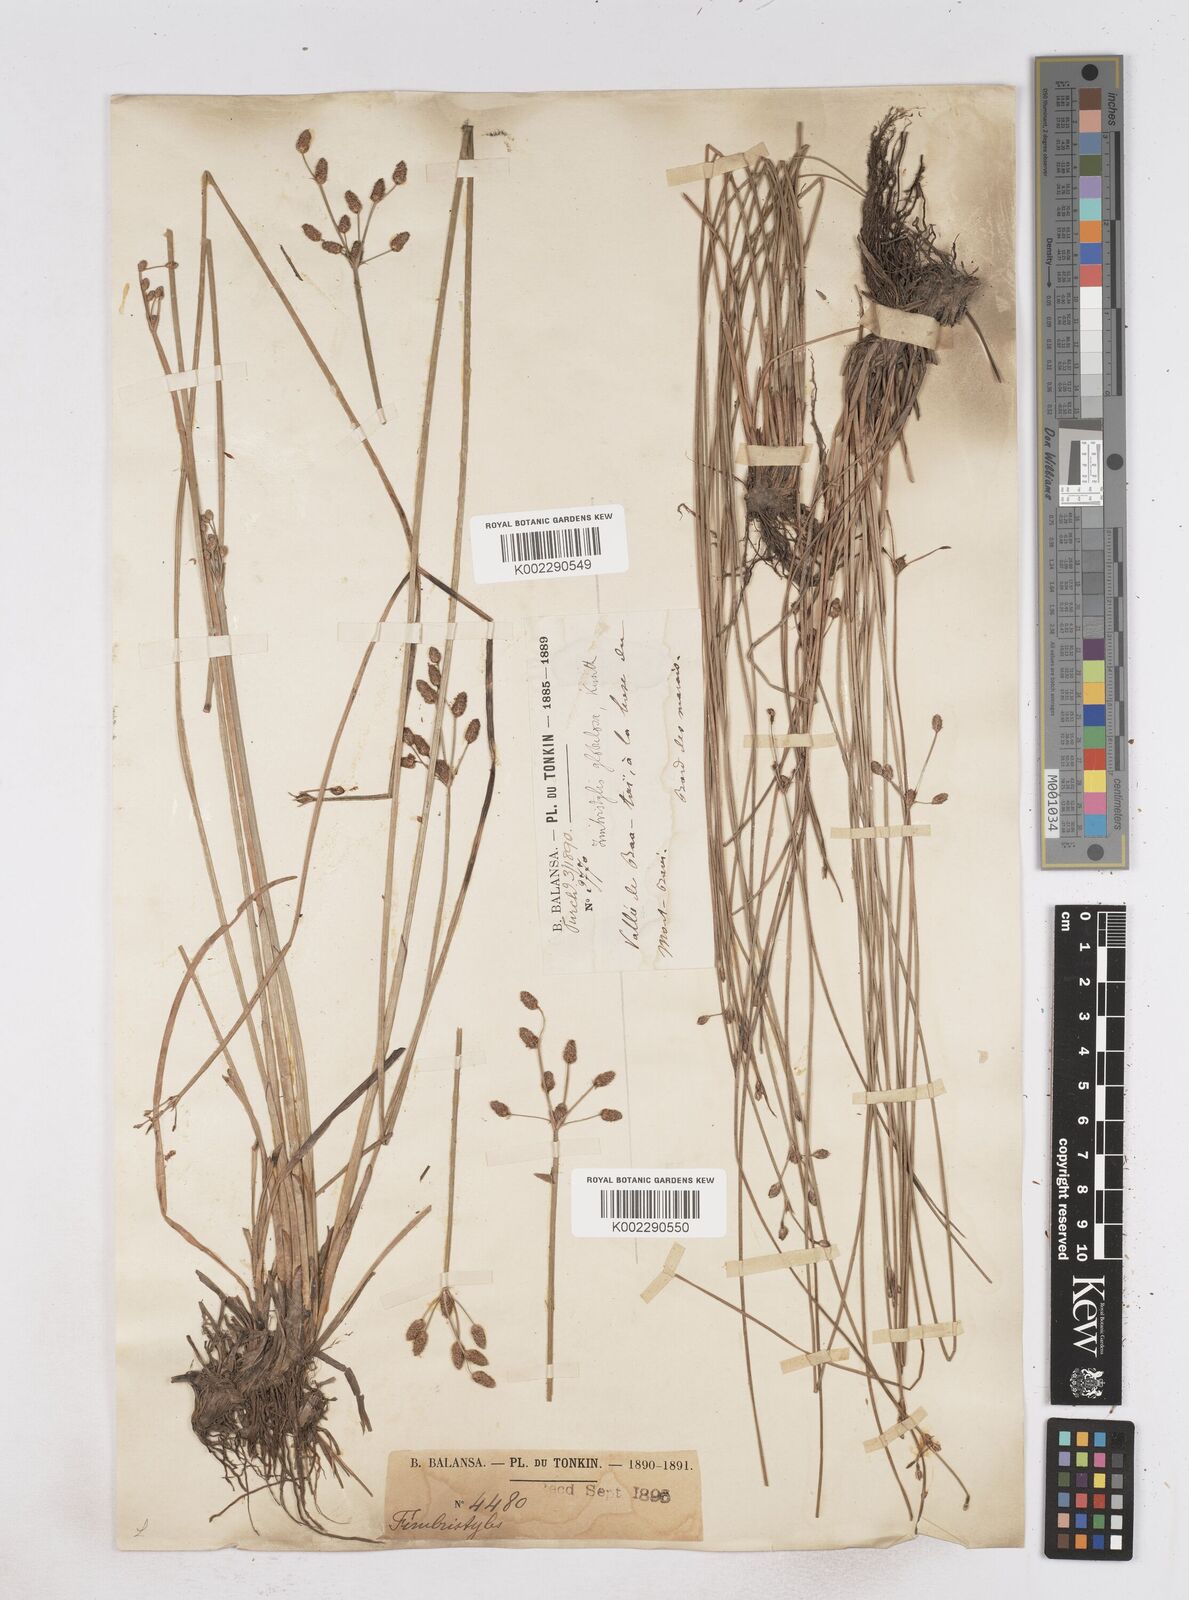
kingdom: Plantae
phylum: Tracheophyta
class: Liliopsida
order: Poales
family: Cyperaceae
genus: Fimbristylis
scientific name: Fimbristylis umbellaris
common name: Globular fimbristylis
